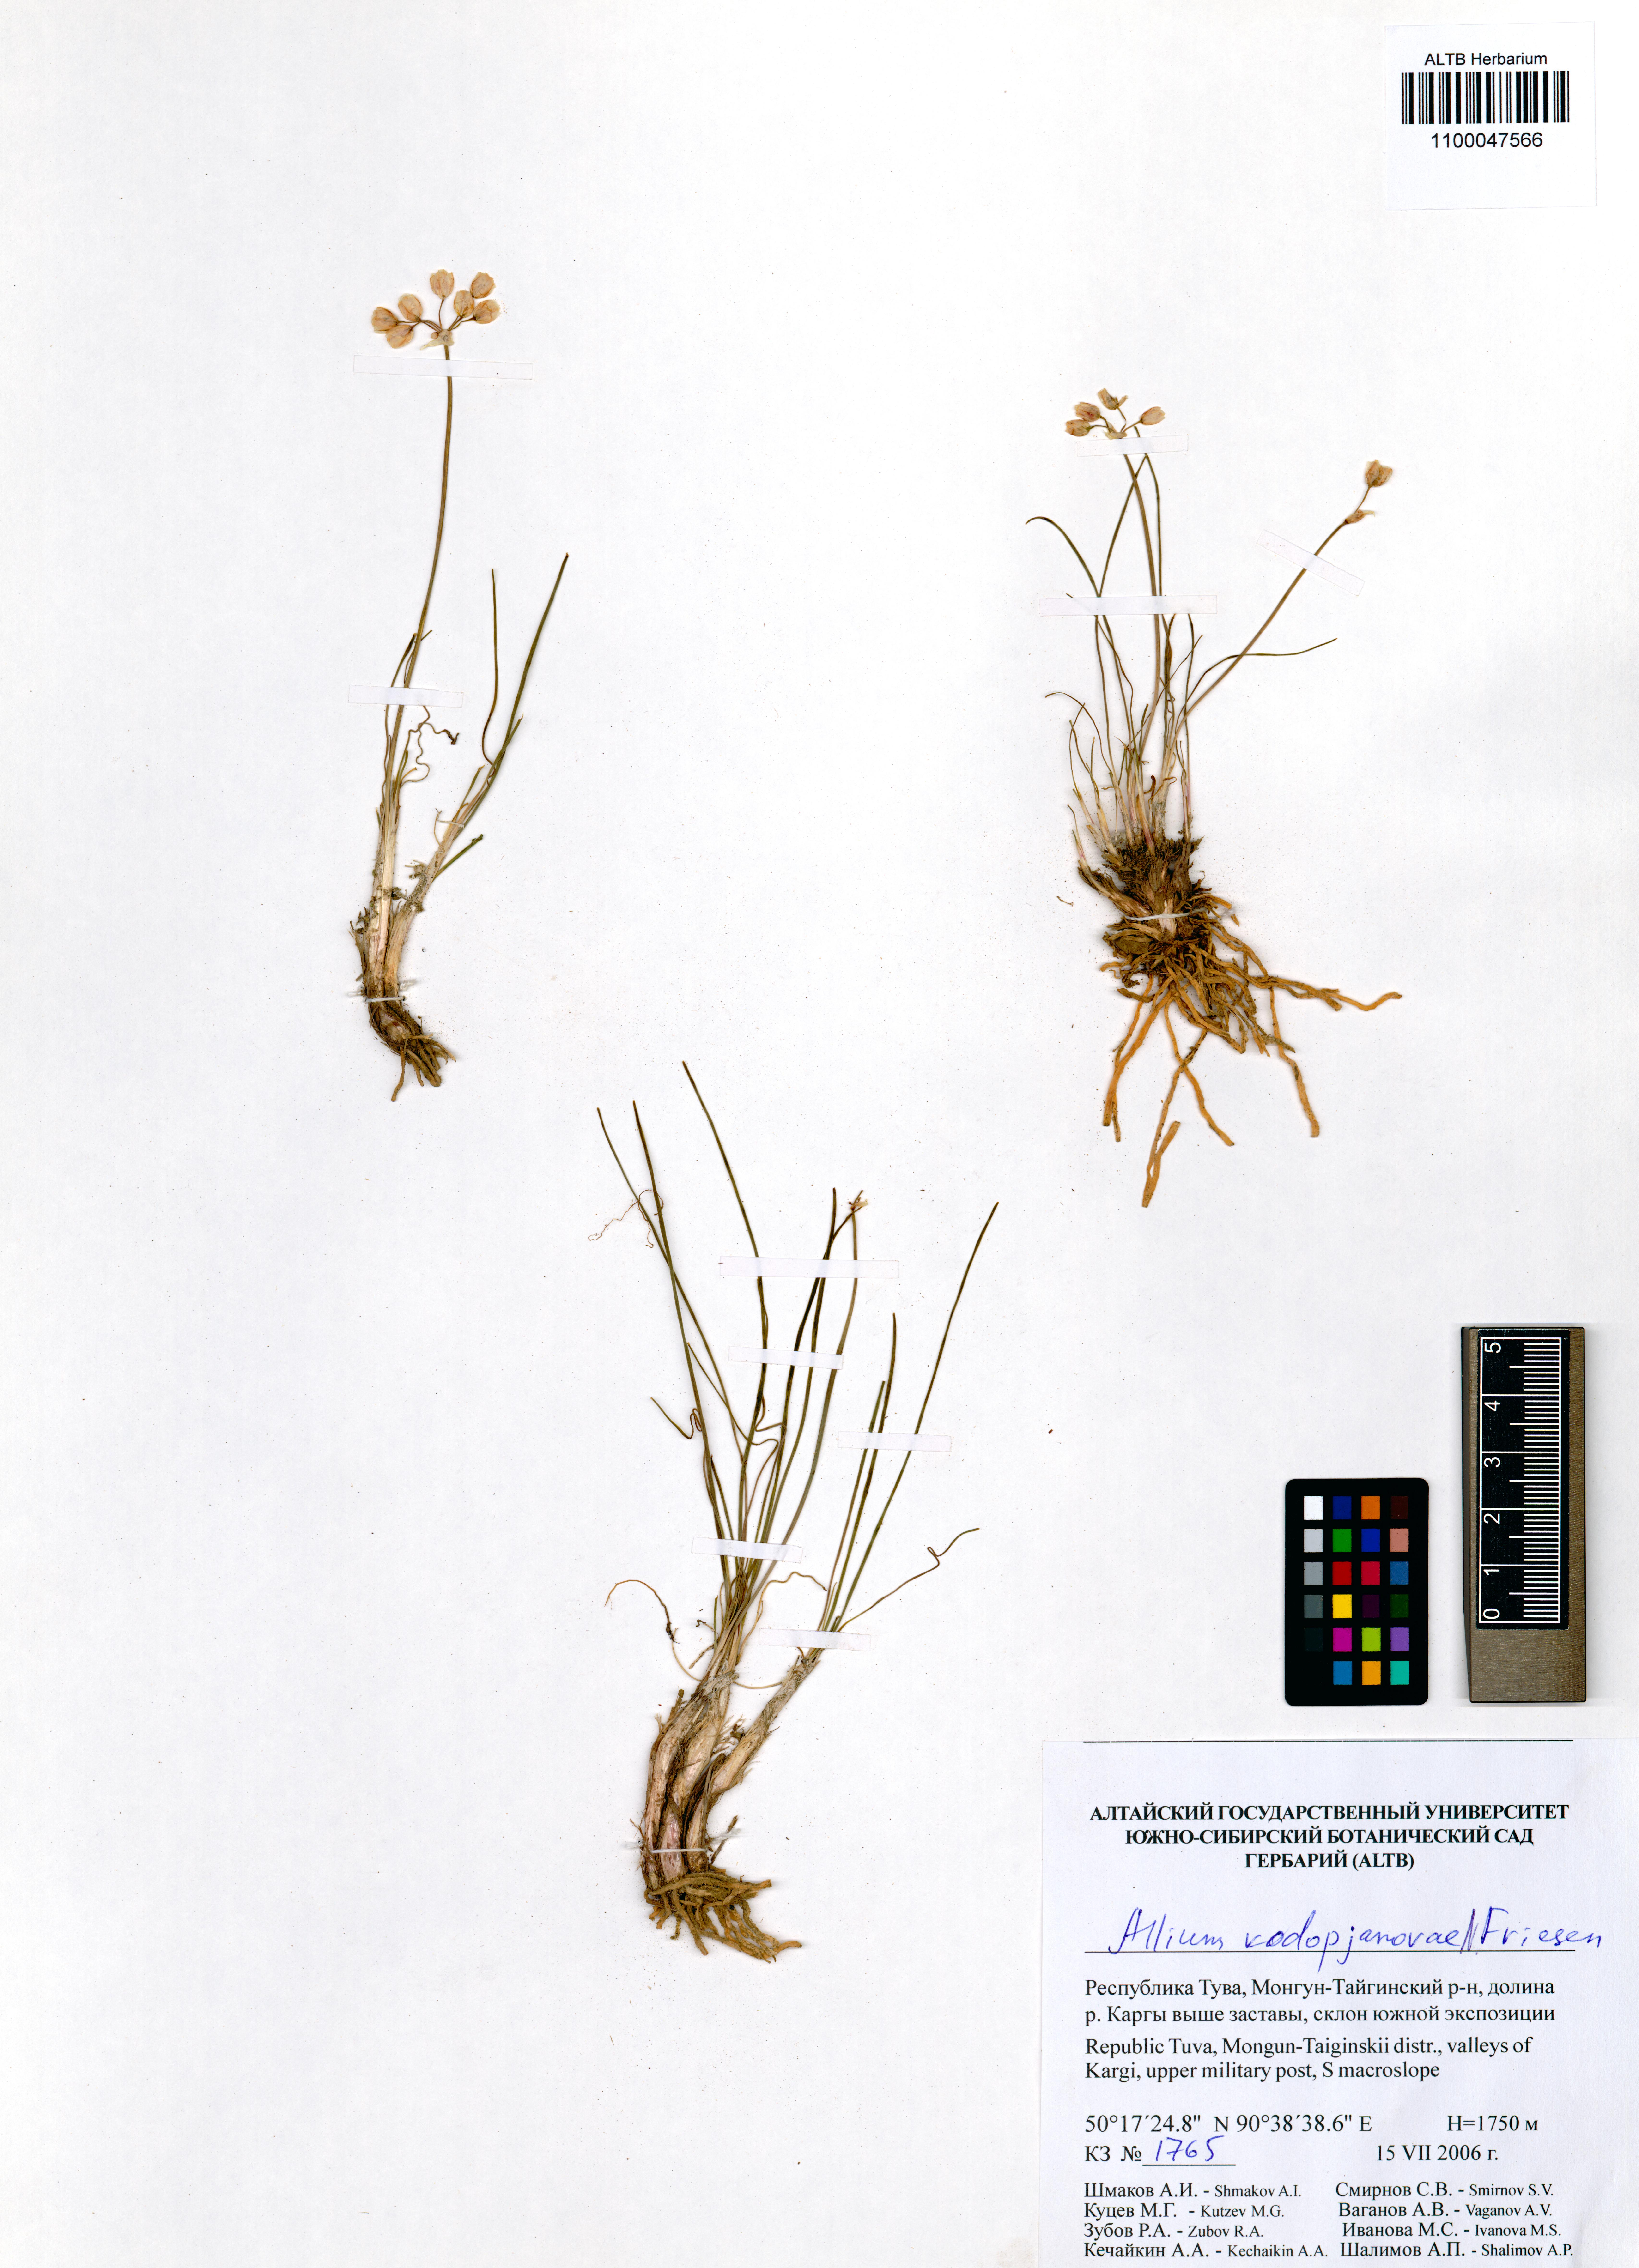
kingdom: Plantae
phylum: Tracheophyta
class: Liliopsida
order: Asparagales
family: Amaryllidaceae
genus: Allium
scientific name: Allium vodopjanovae
